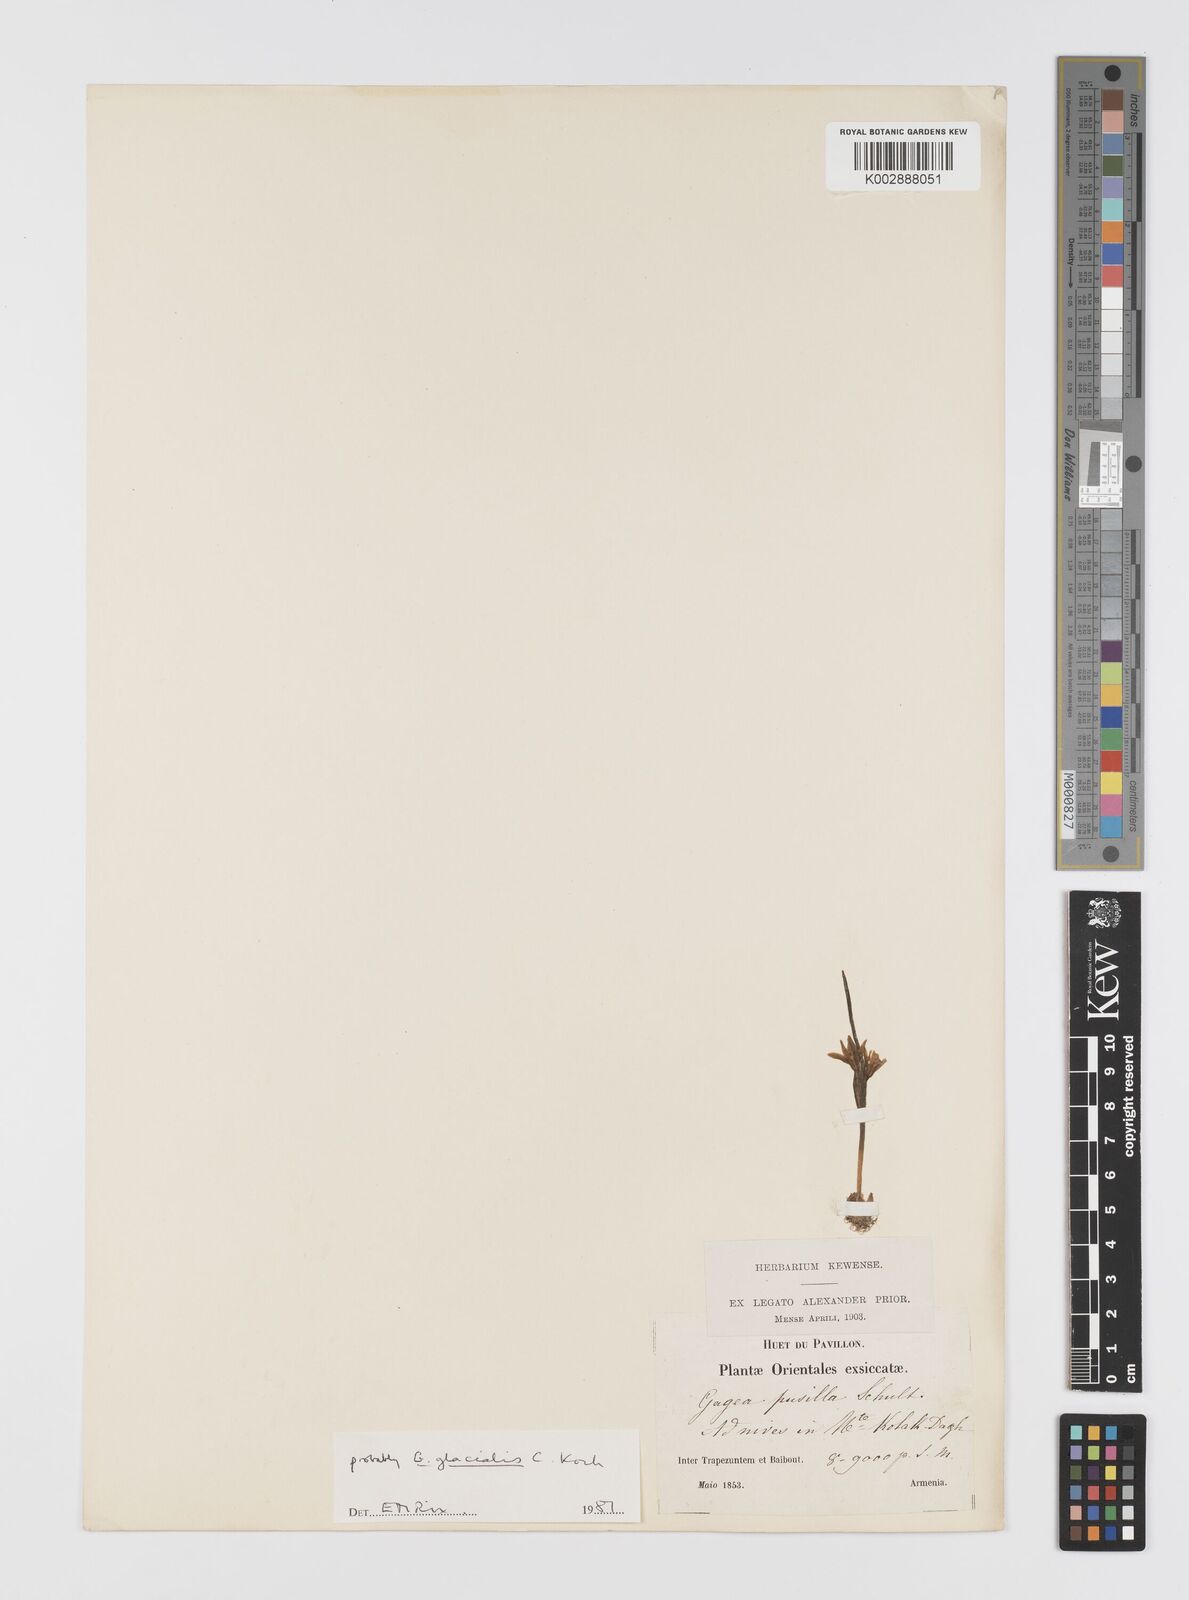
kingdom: Plantae
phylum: Tracheophyta
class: Liliopsida
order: Liliales
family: Liliaceae
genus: Gagea
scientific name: Gagea pusilla
